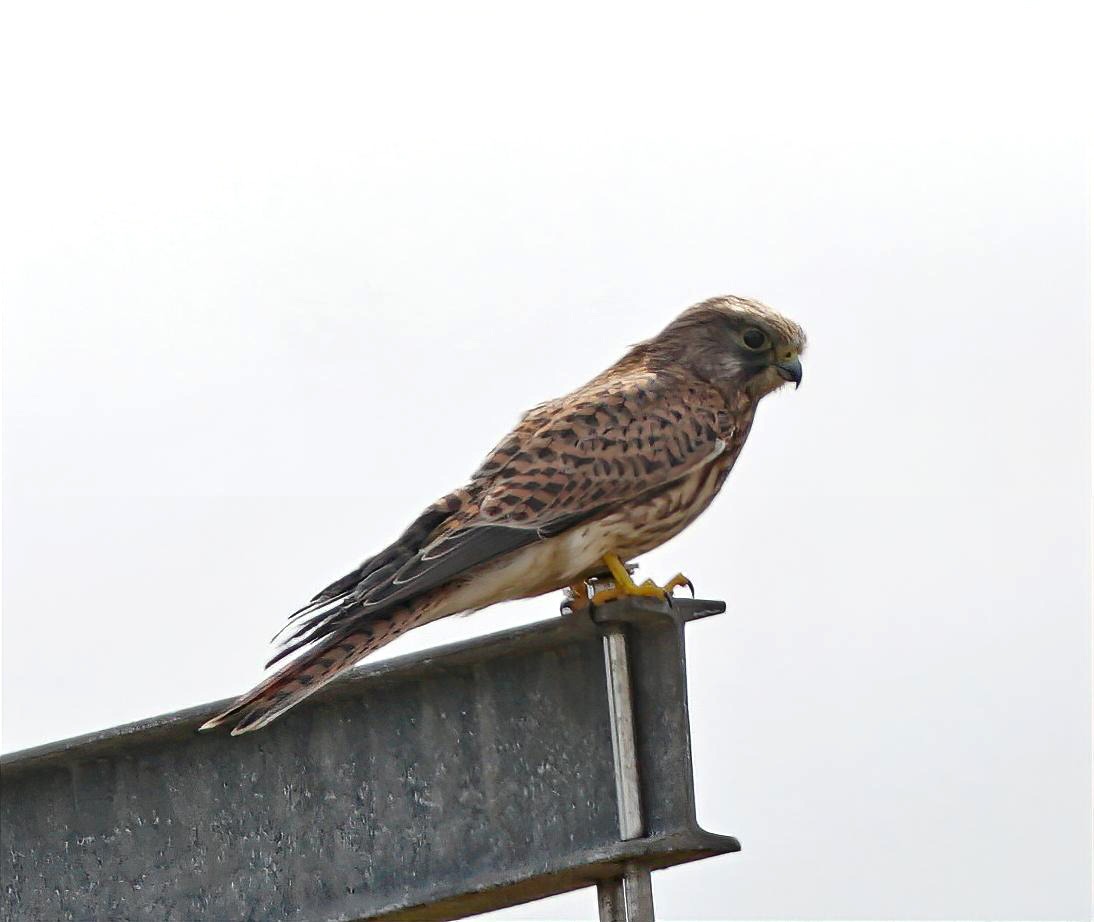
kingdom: Animalia
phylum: Chordata
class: Aves
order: Falconiformes
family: Falconidae
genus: Falco
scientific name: Falco tinnunculus
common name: Tårnfalk
